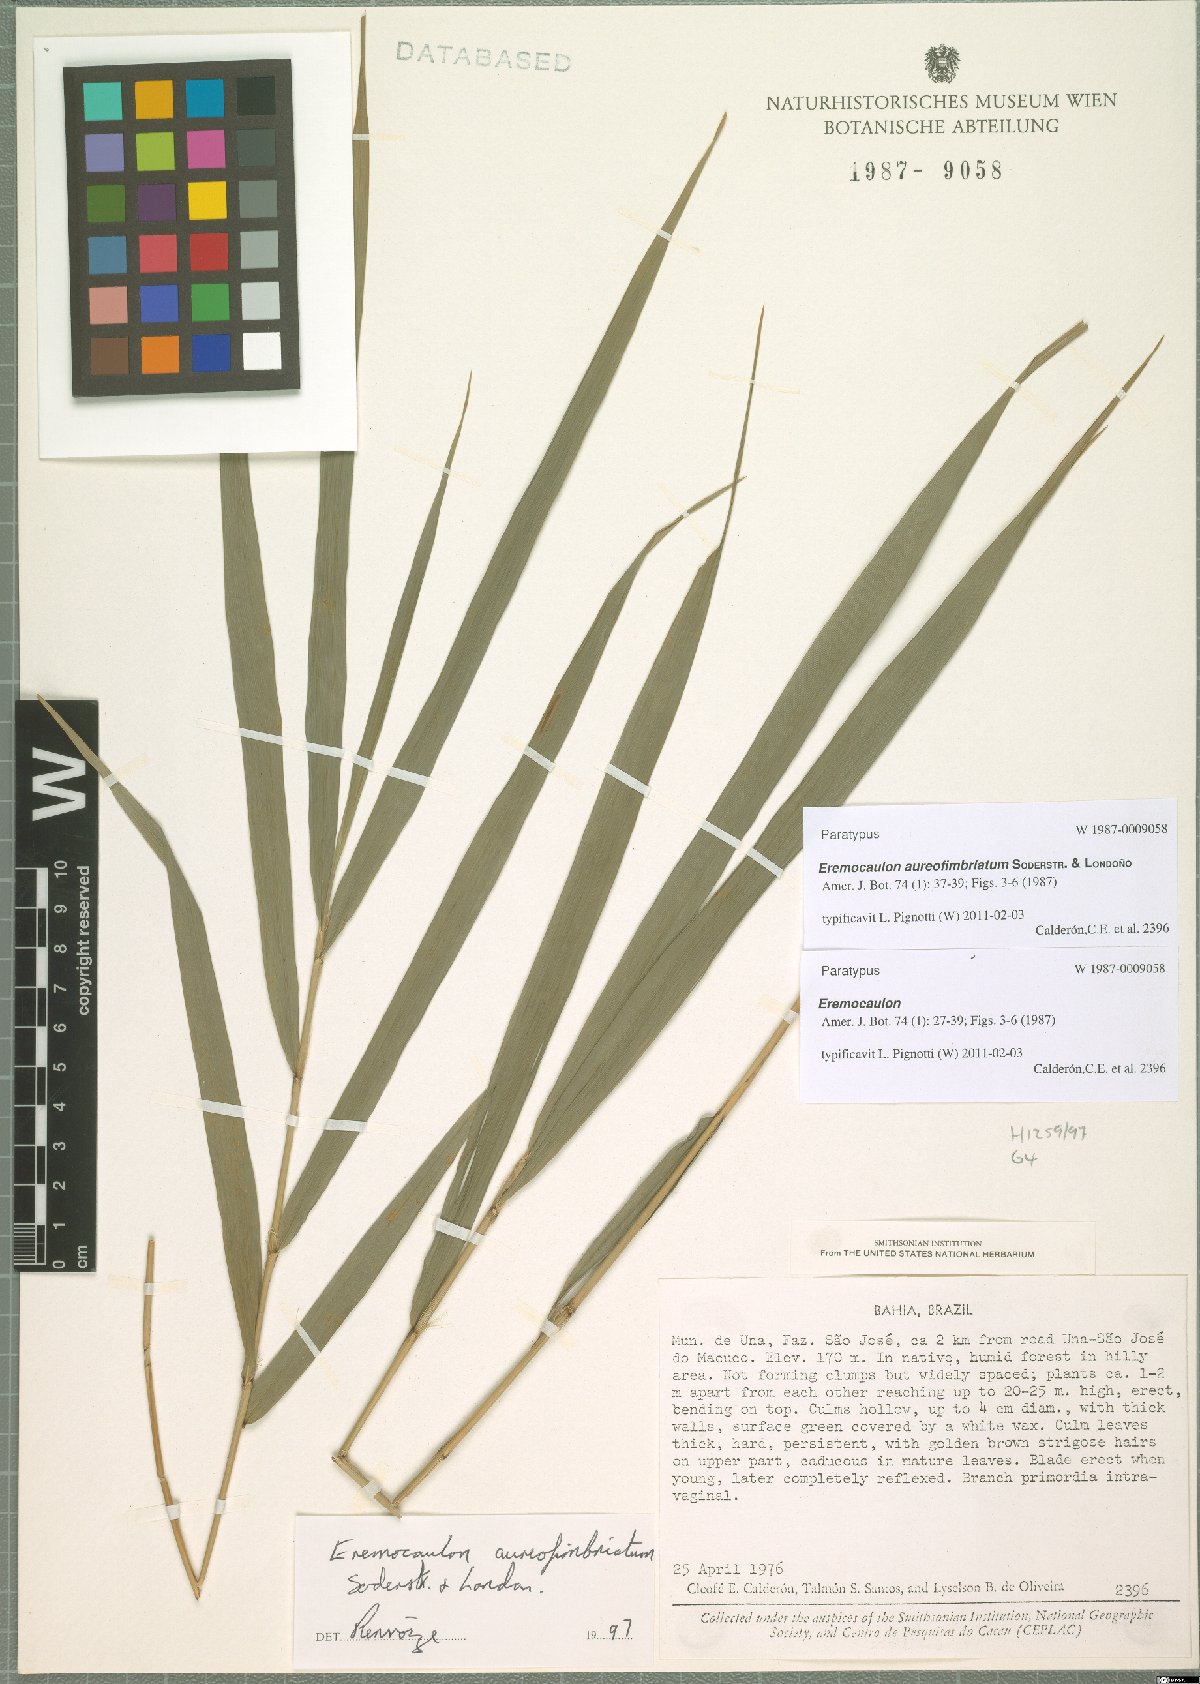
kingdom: Plantae
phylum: Tracheophyta
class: Liliopsida
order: Poales
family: Poaceae
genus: Eremocaulon
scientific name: Eremocaulon aureofimbriatum
